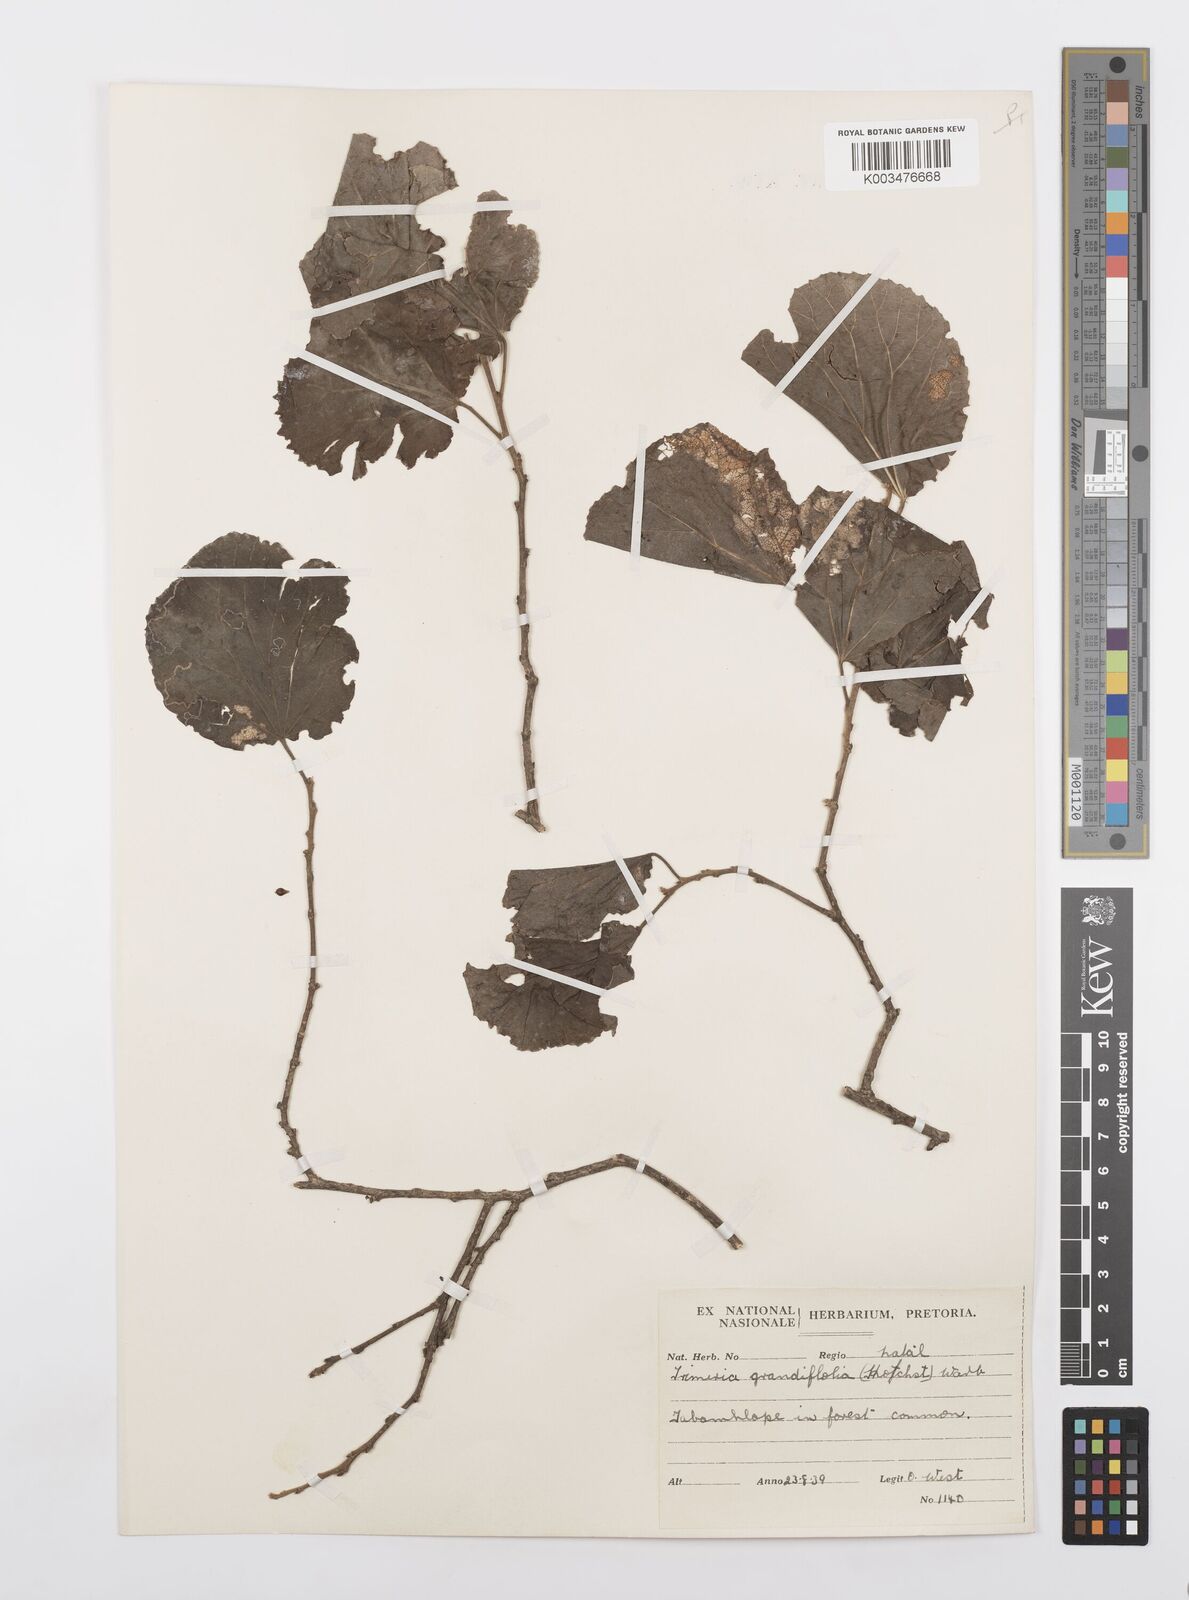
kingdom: Plantae
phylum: Tracheophyta
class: Magnoliopsida
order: Malpighiales
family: Salicaceae
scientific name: Salicaceae
